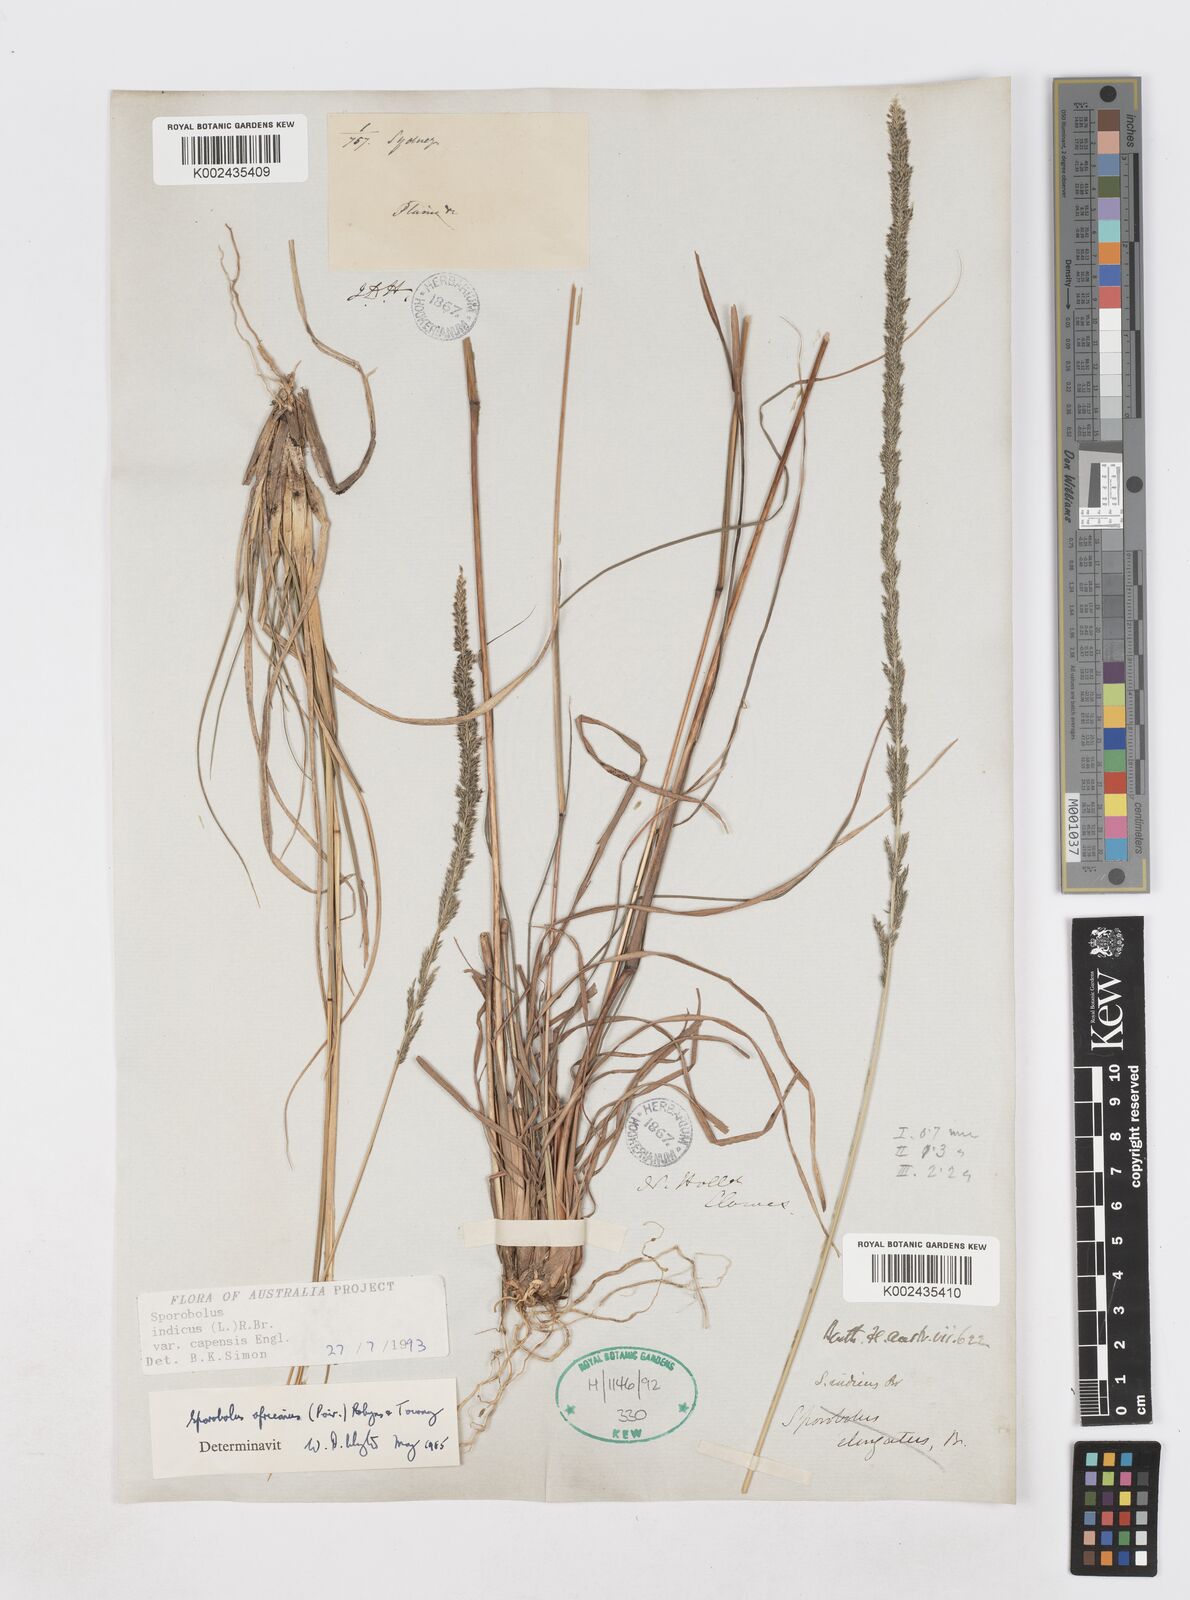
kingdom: Plantae
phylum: Tracheophyta
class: Liliopsida
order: Poales
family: Poaceae
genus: Sporobolus
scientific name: Sporobolus africanus
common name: African dropseed
